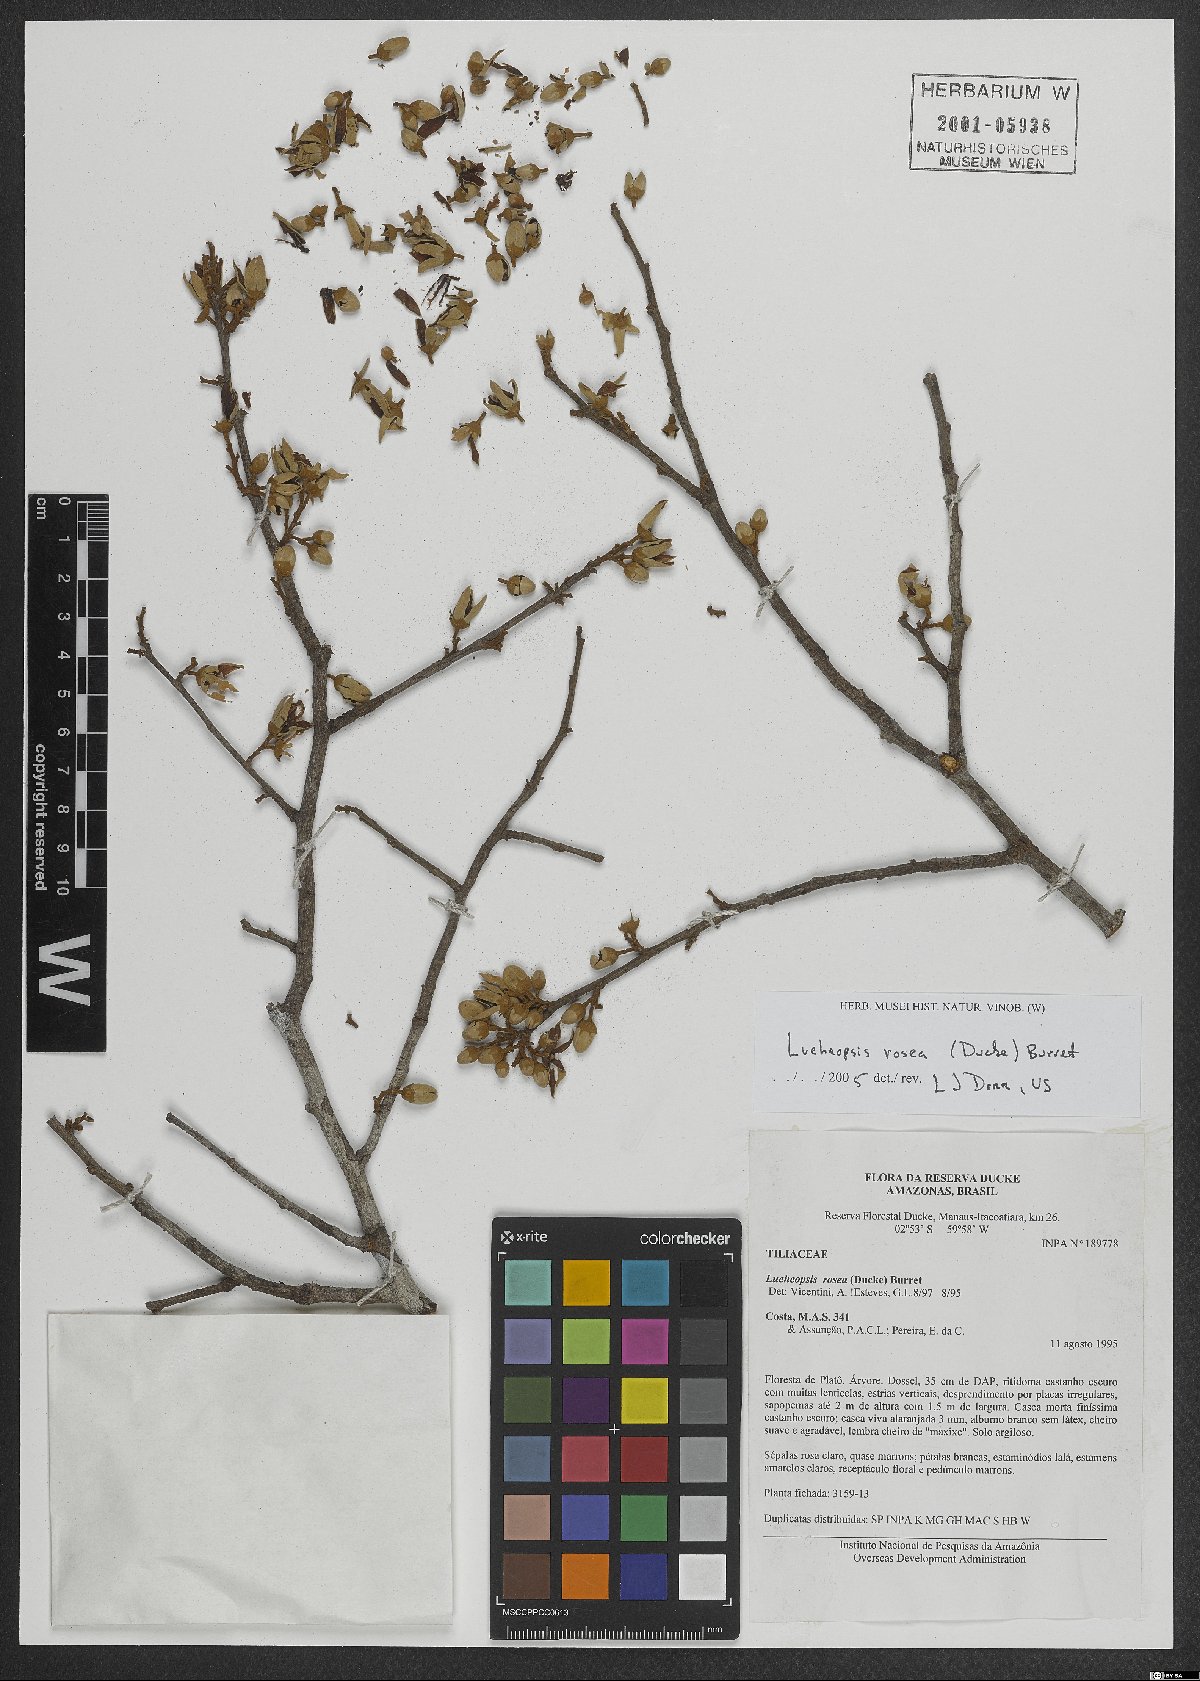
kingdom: Plantae
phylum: Tracheophyta
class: Magnoliopsida
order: Malvales
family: Malvaceae
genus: Lueheopsis
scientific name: Lueheopsis rosea
